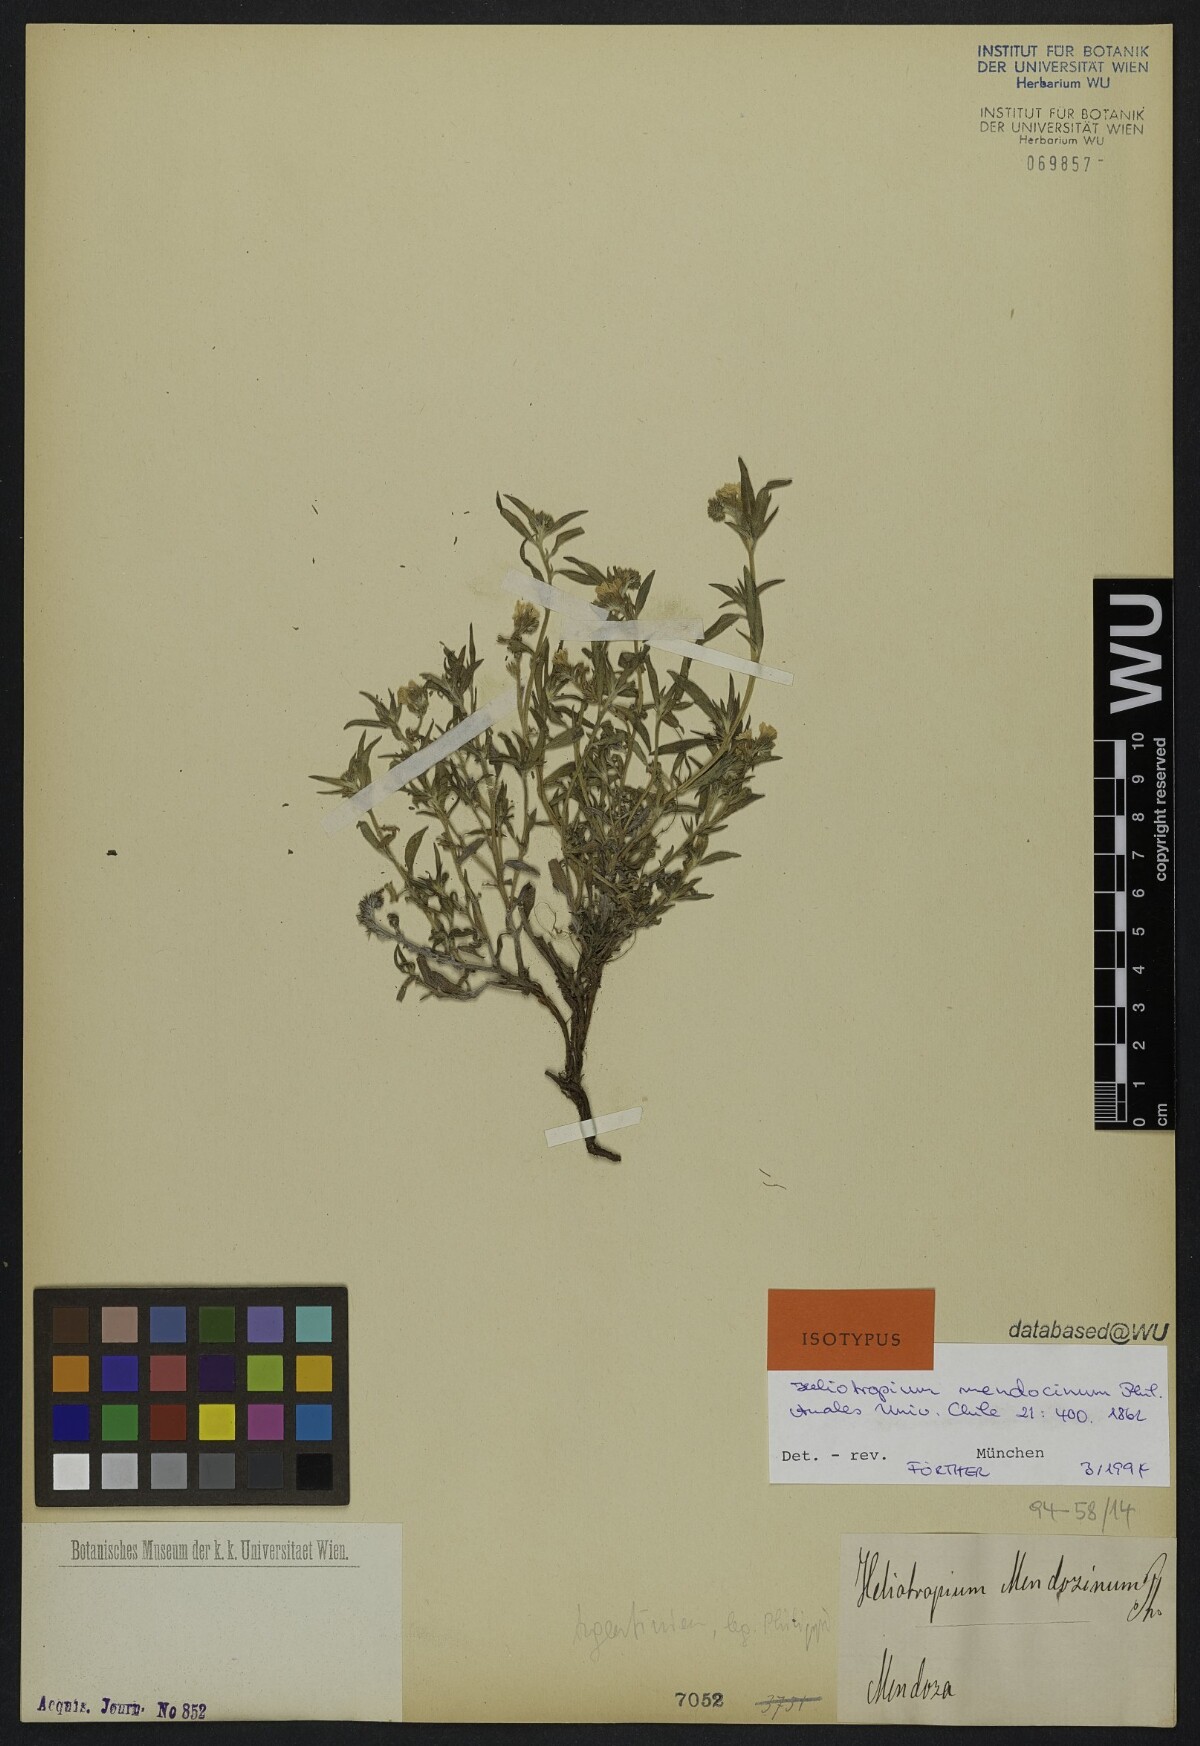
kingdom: Plantae
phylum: Tracheophyta
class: Magnoliopsida
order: Boraginales
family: Heliotropiaceae
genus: Euploca
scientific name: Euploca mendocina
